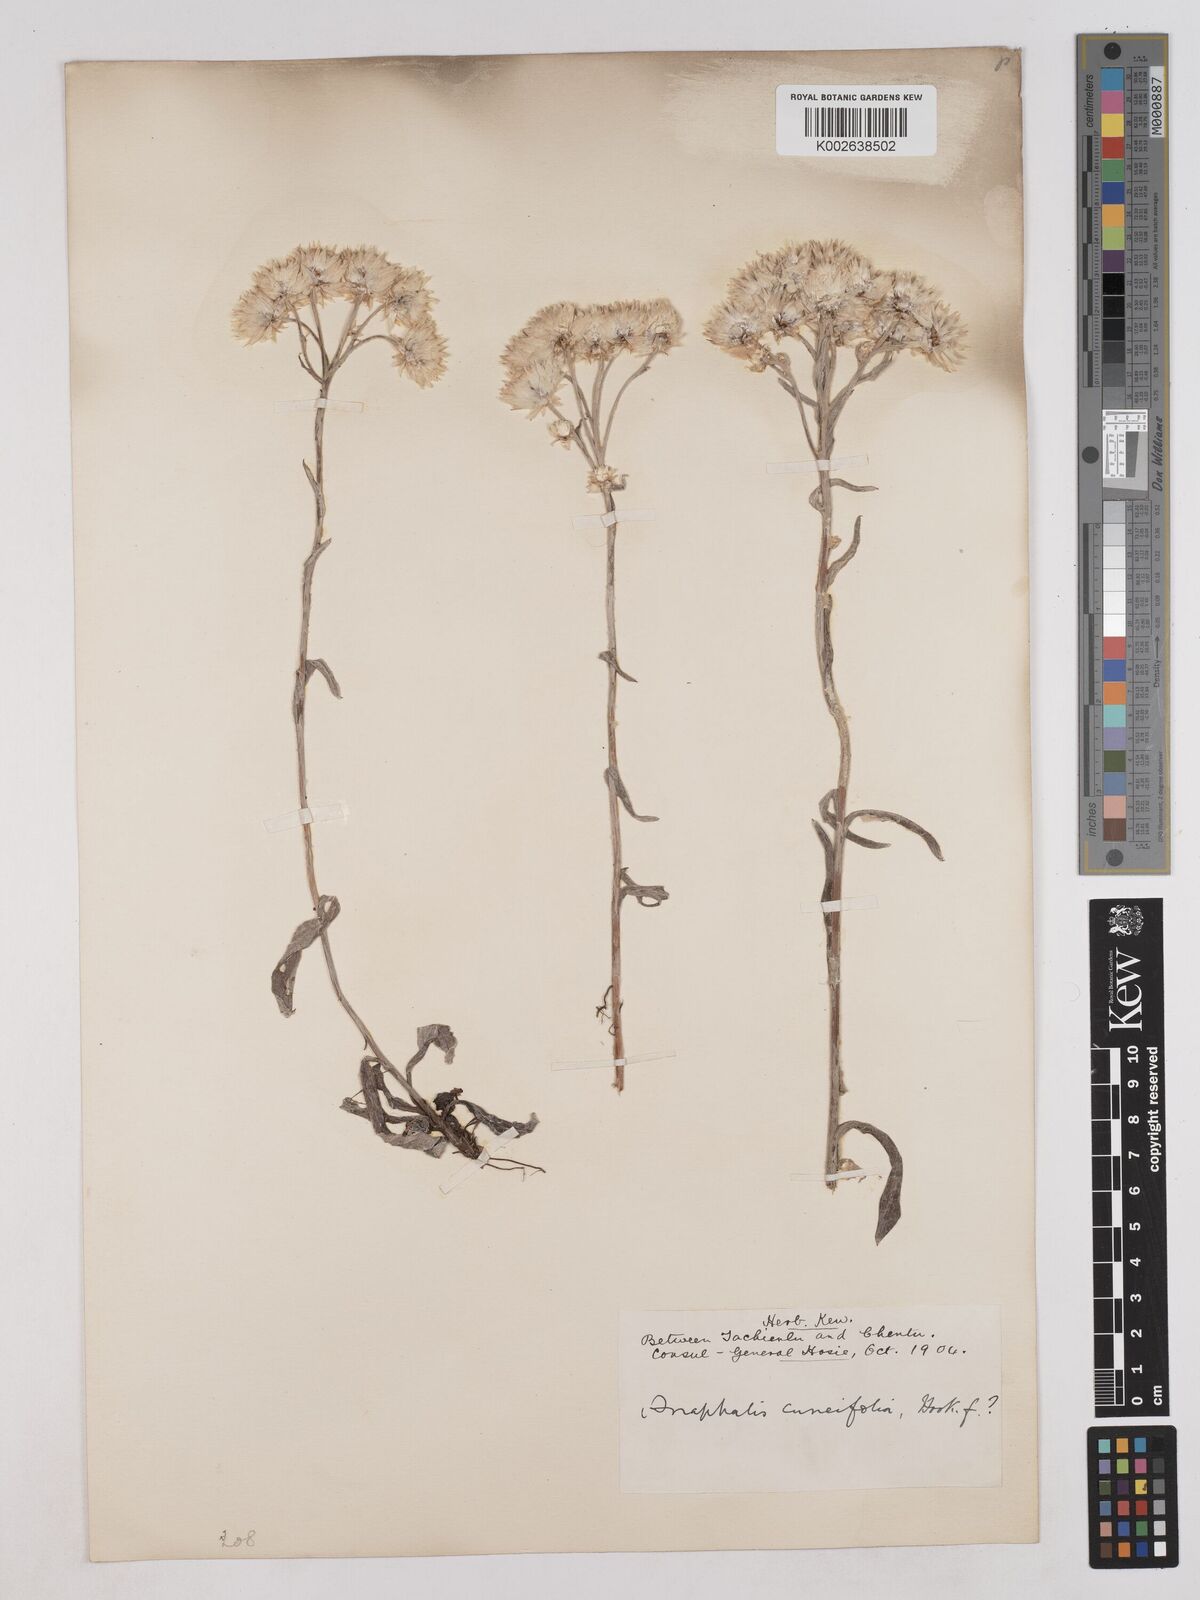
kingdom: Plantae
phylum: Tracheophyta
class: Magnoliopsida
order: Asterales
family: Asteraceae
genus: Anaphalis
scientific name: Anaphalis nepalensis
